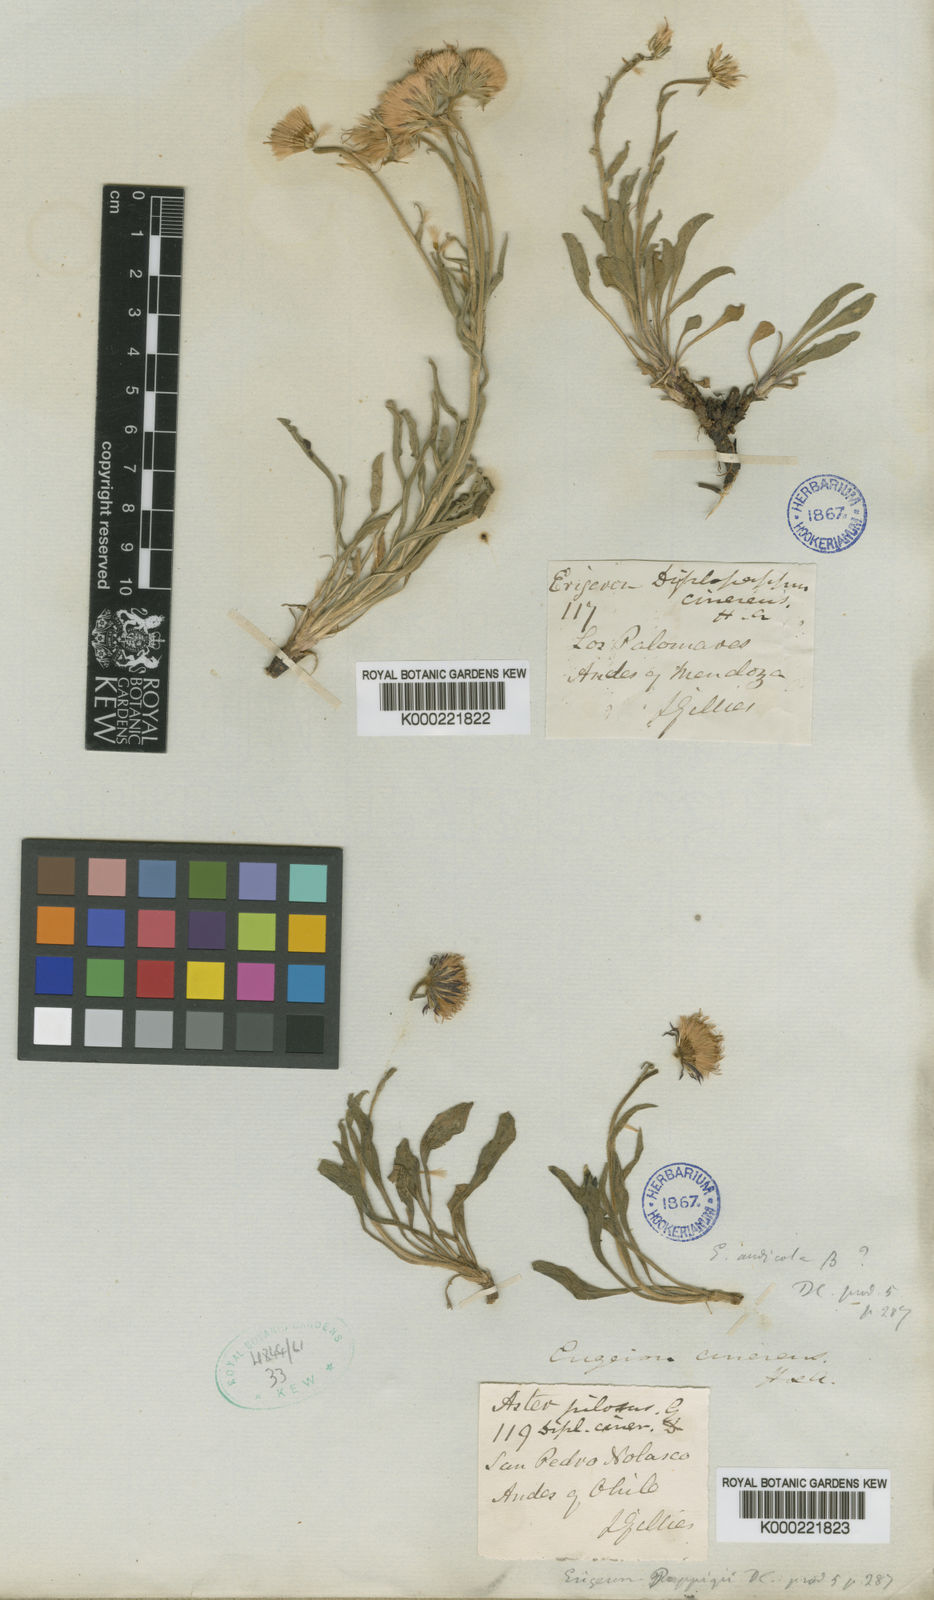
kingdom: Plantae
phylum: Tracheophyta
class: Magnoliopsida
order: Asterales
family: Asteraceae
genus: Erigeron
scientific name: Erigeron cinereus
